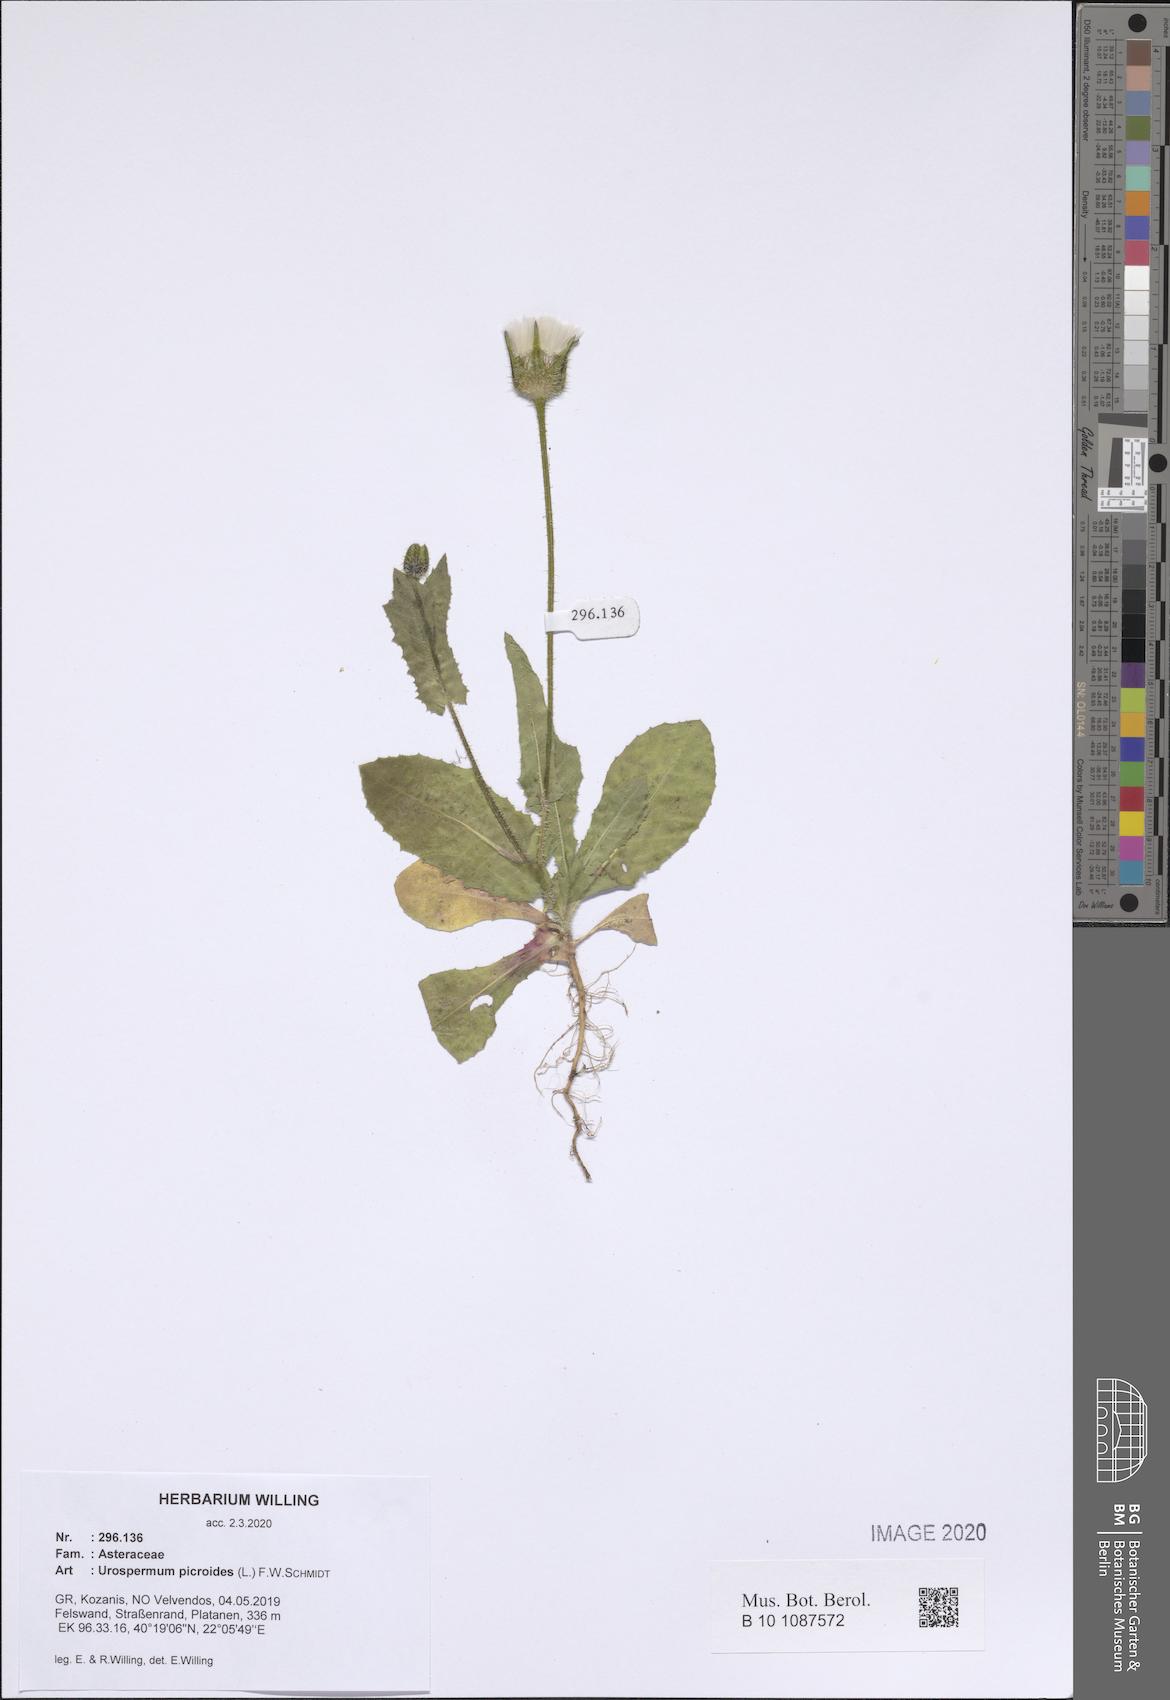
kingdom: Plantae
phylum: Tracheophyta
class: Magnoliopsida
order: Asterales
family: Asteraceae
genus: Urospermum
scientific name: Urospermum picroides
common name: False hawkbit
